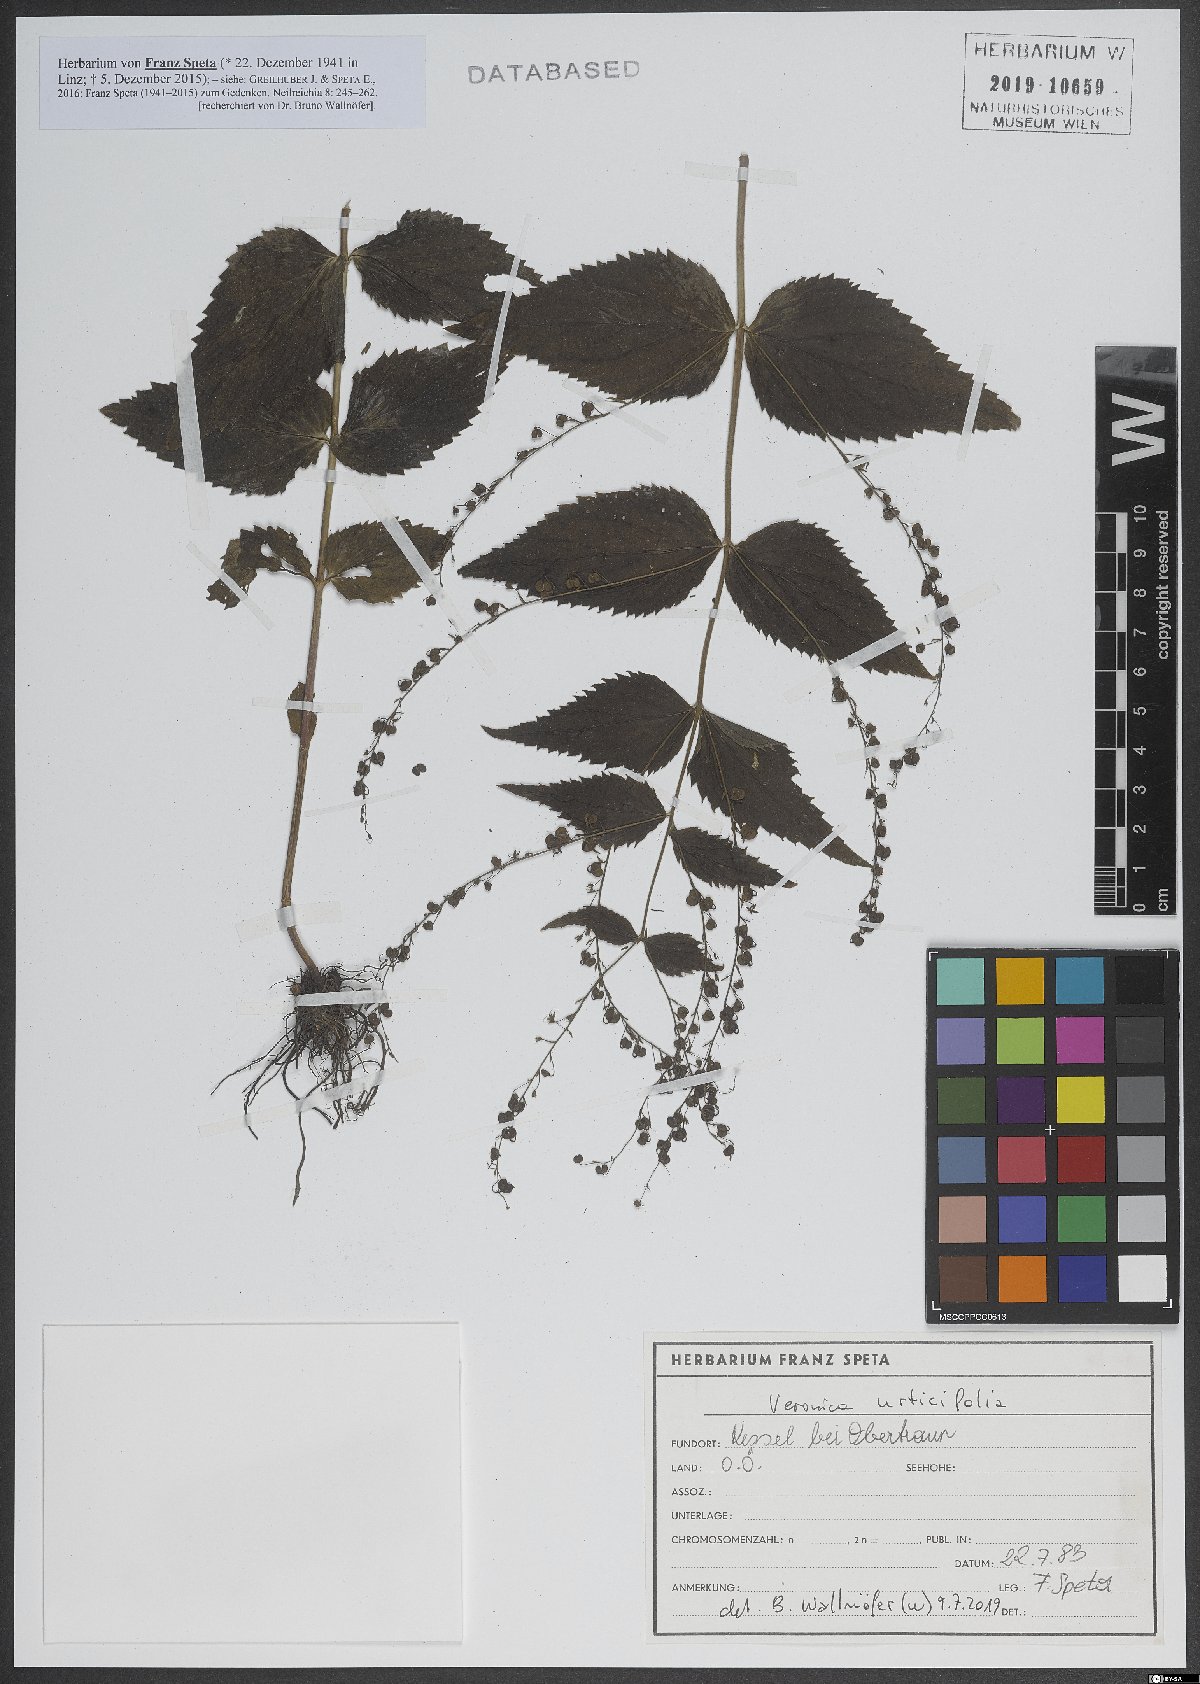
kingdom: Plantae
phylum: Tracheophyta
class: Magnoliopsida
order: Lamiales
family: Plantaginaceae
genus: Veronica
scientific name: Veronica urticifolia
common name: Nettle-leaf speedwell
